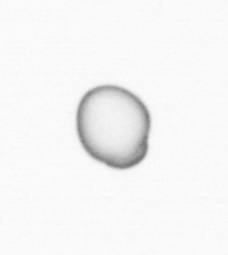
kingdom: Chromista
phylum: Myzozoa
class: Dinophyceae
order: Noctilucales
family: Noctilucaceae
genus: Noctiluca
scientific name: Noctiluca scintillans
